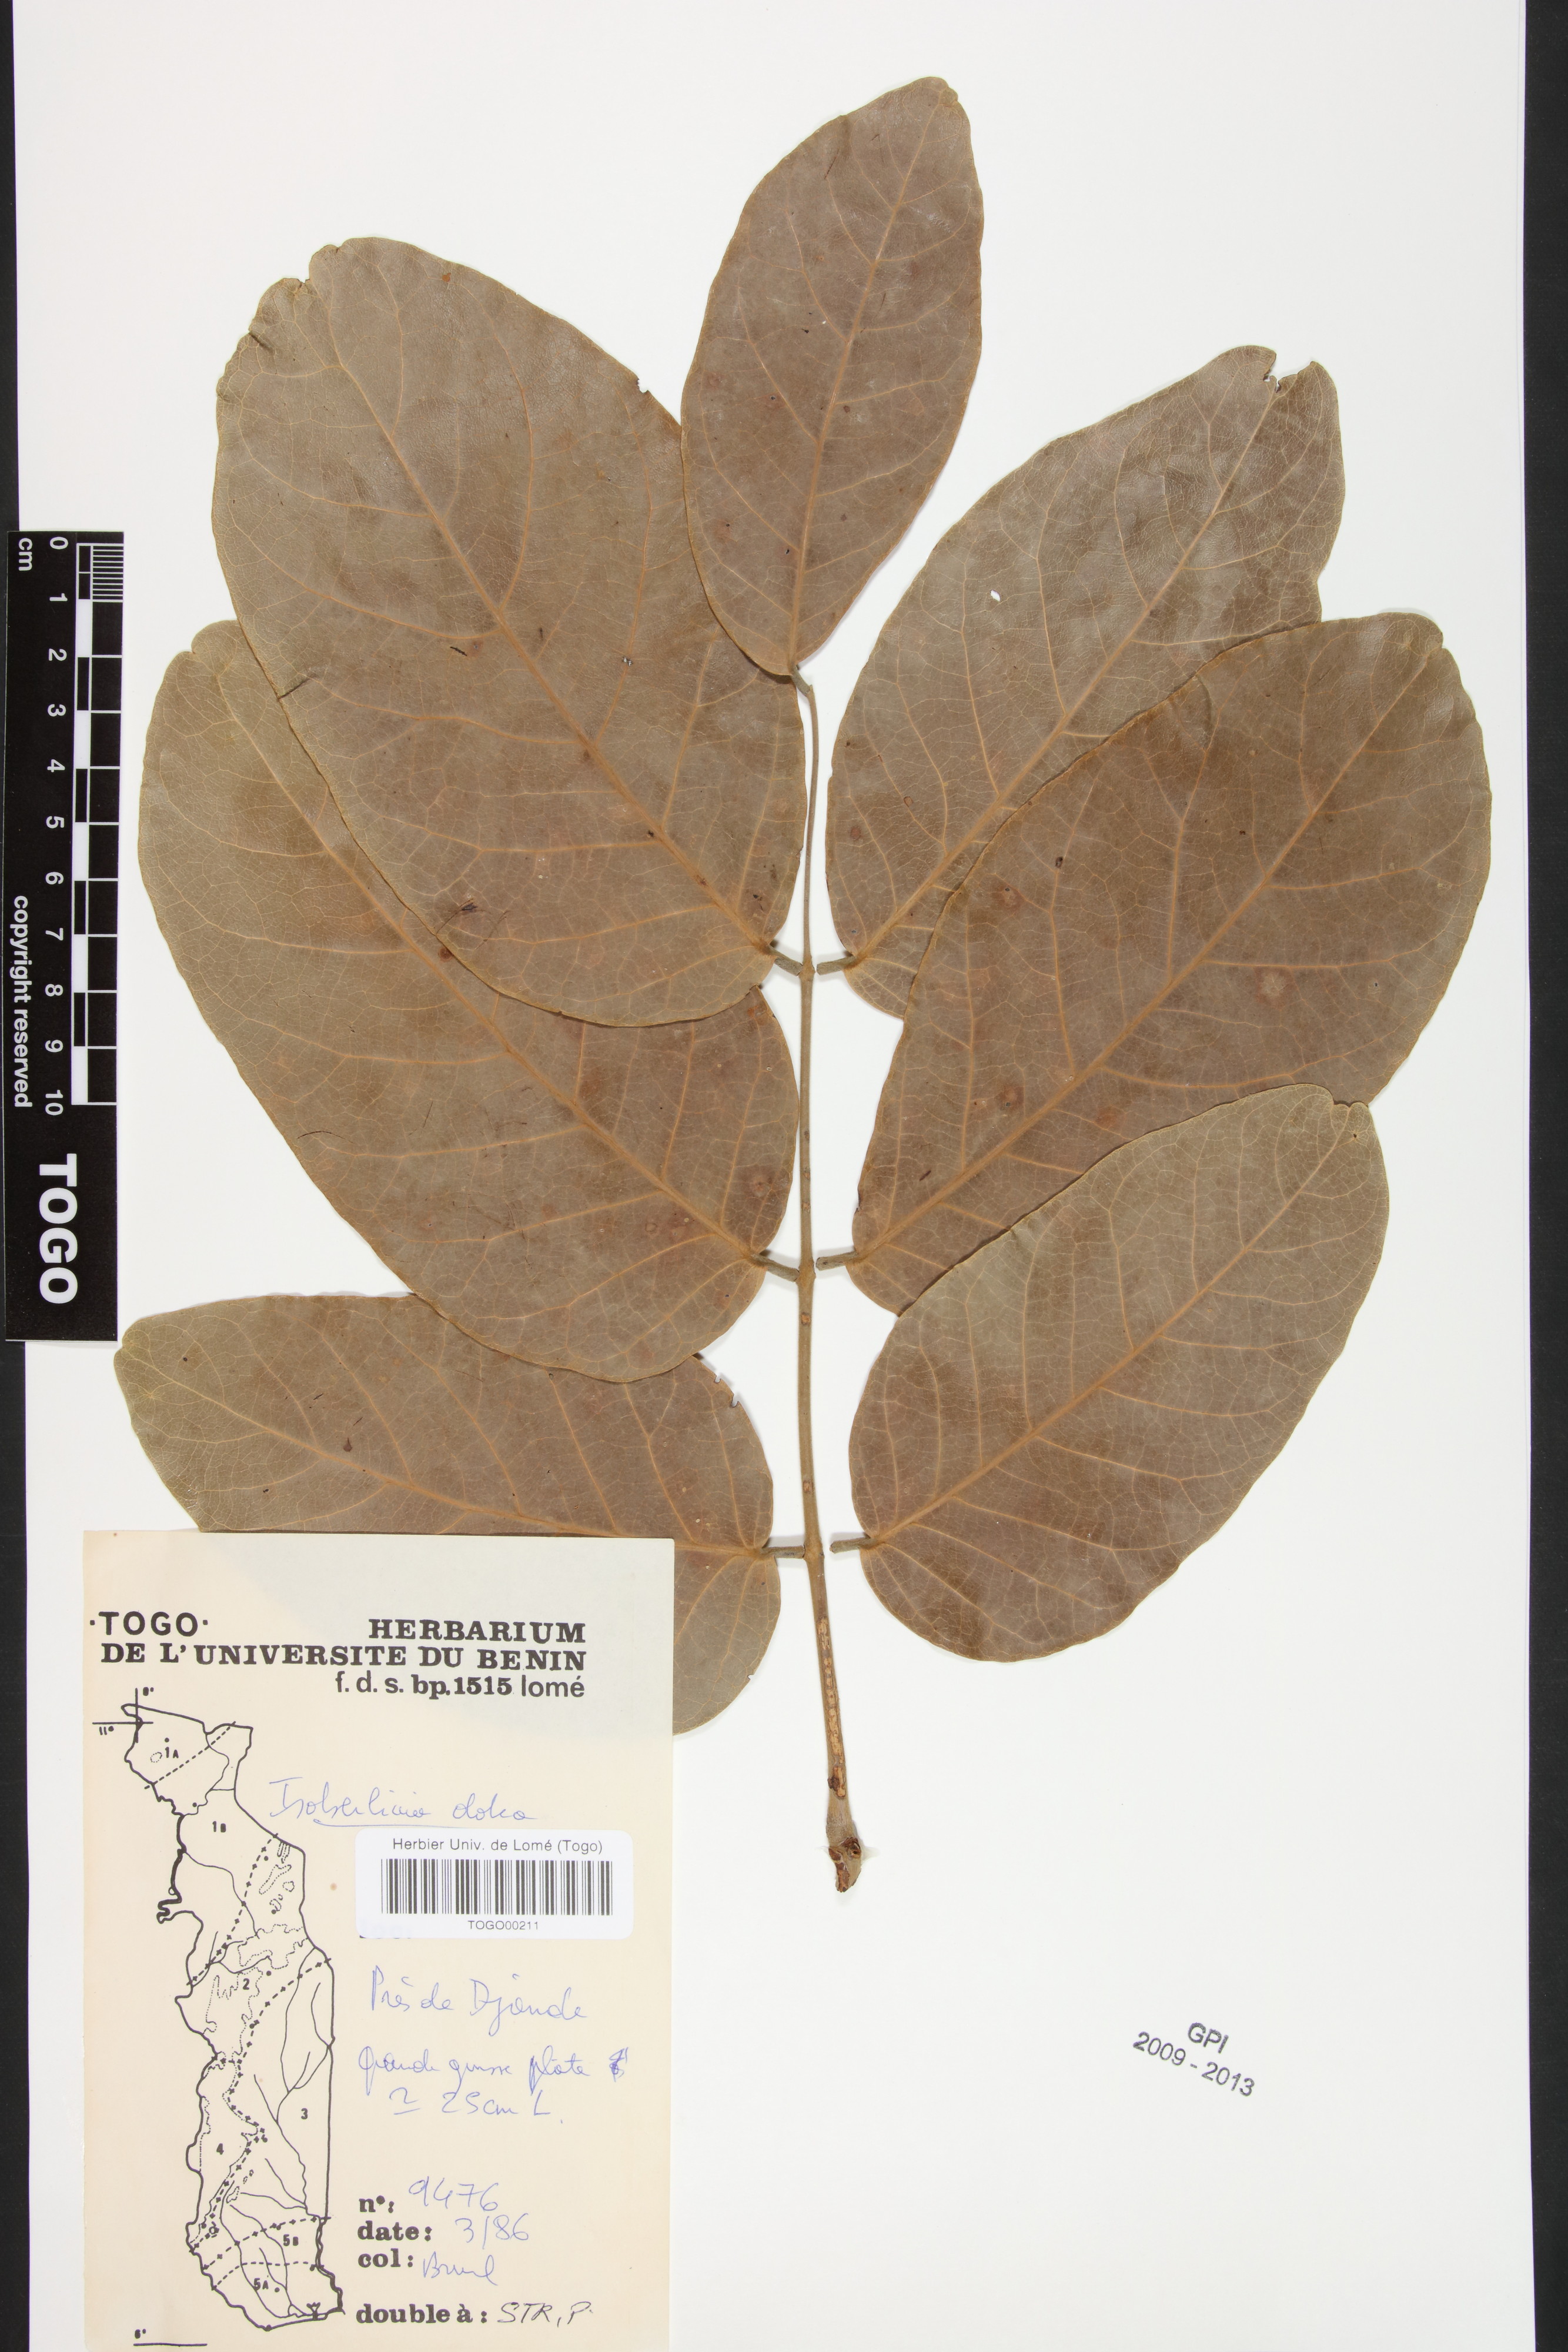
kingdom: Plantae
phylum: Tracheophyta
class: Magnoliopsida
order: Fabales
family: Fabaceae
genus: Isoberlinia
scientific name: Isoberlinia doka
